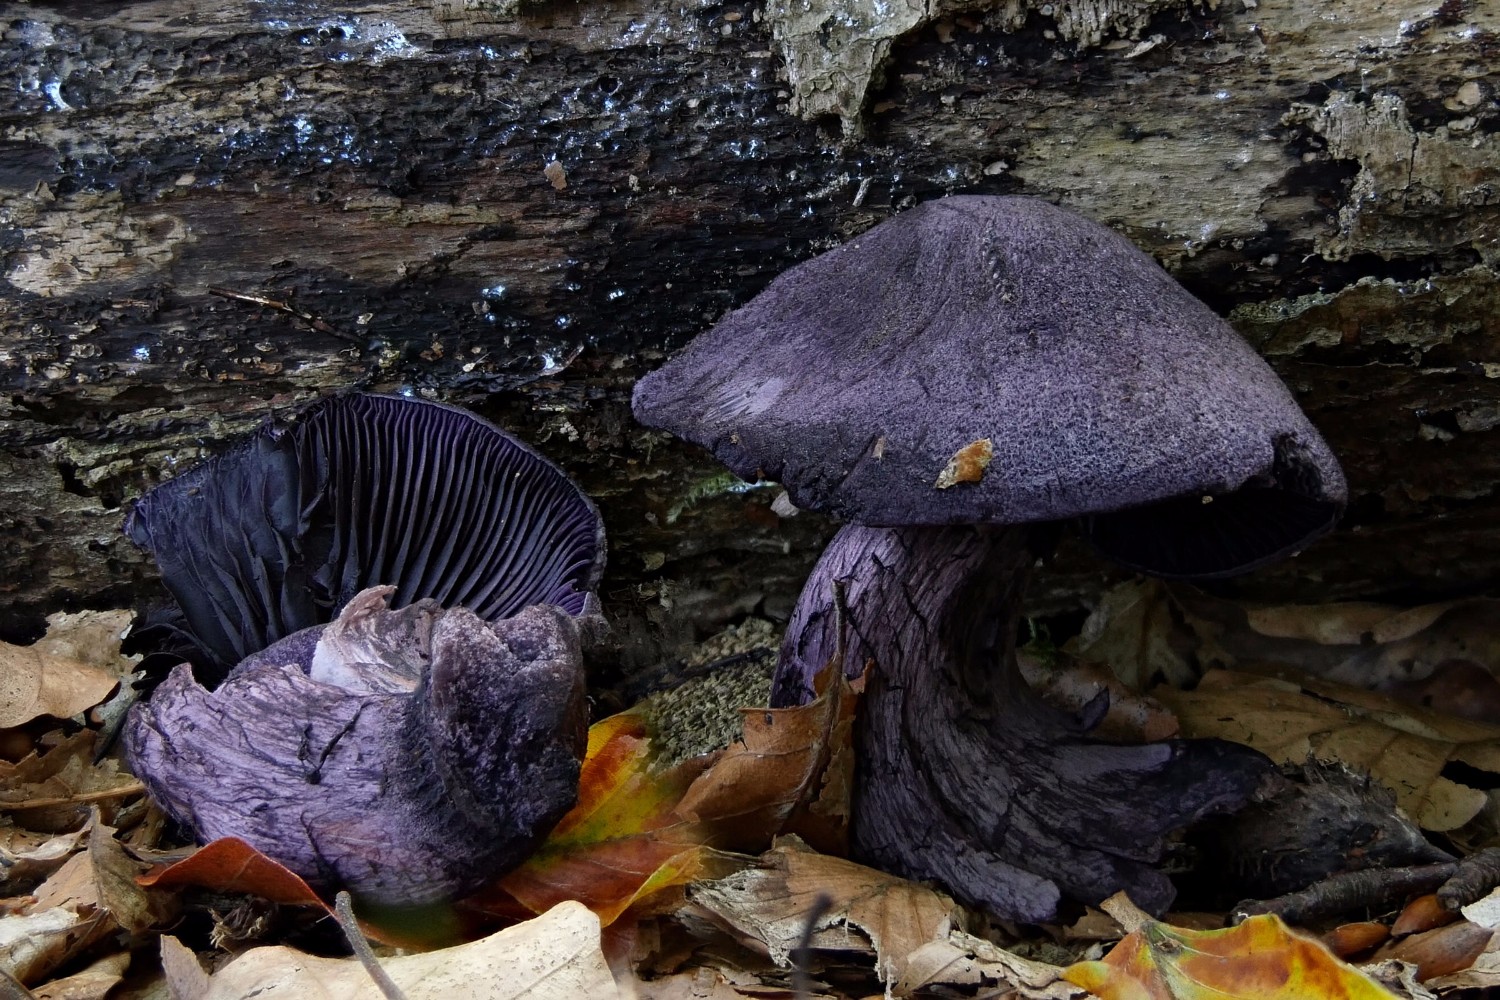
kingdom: Fungi
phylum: Basidiomycota
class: Agaricomycetes
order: Agaricales
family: Cortinariaceae
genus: Cortinarius
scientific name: Cortinarius violaceus
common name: mørkviolet slørhat
